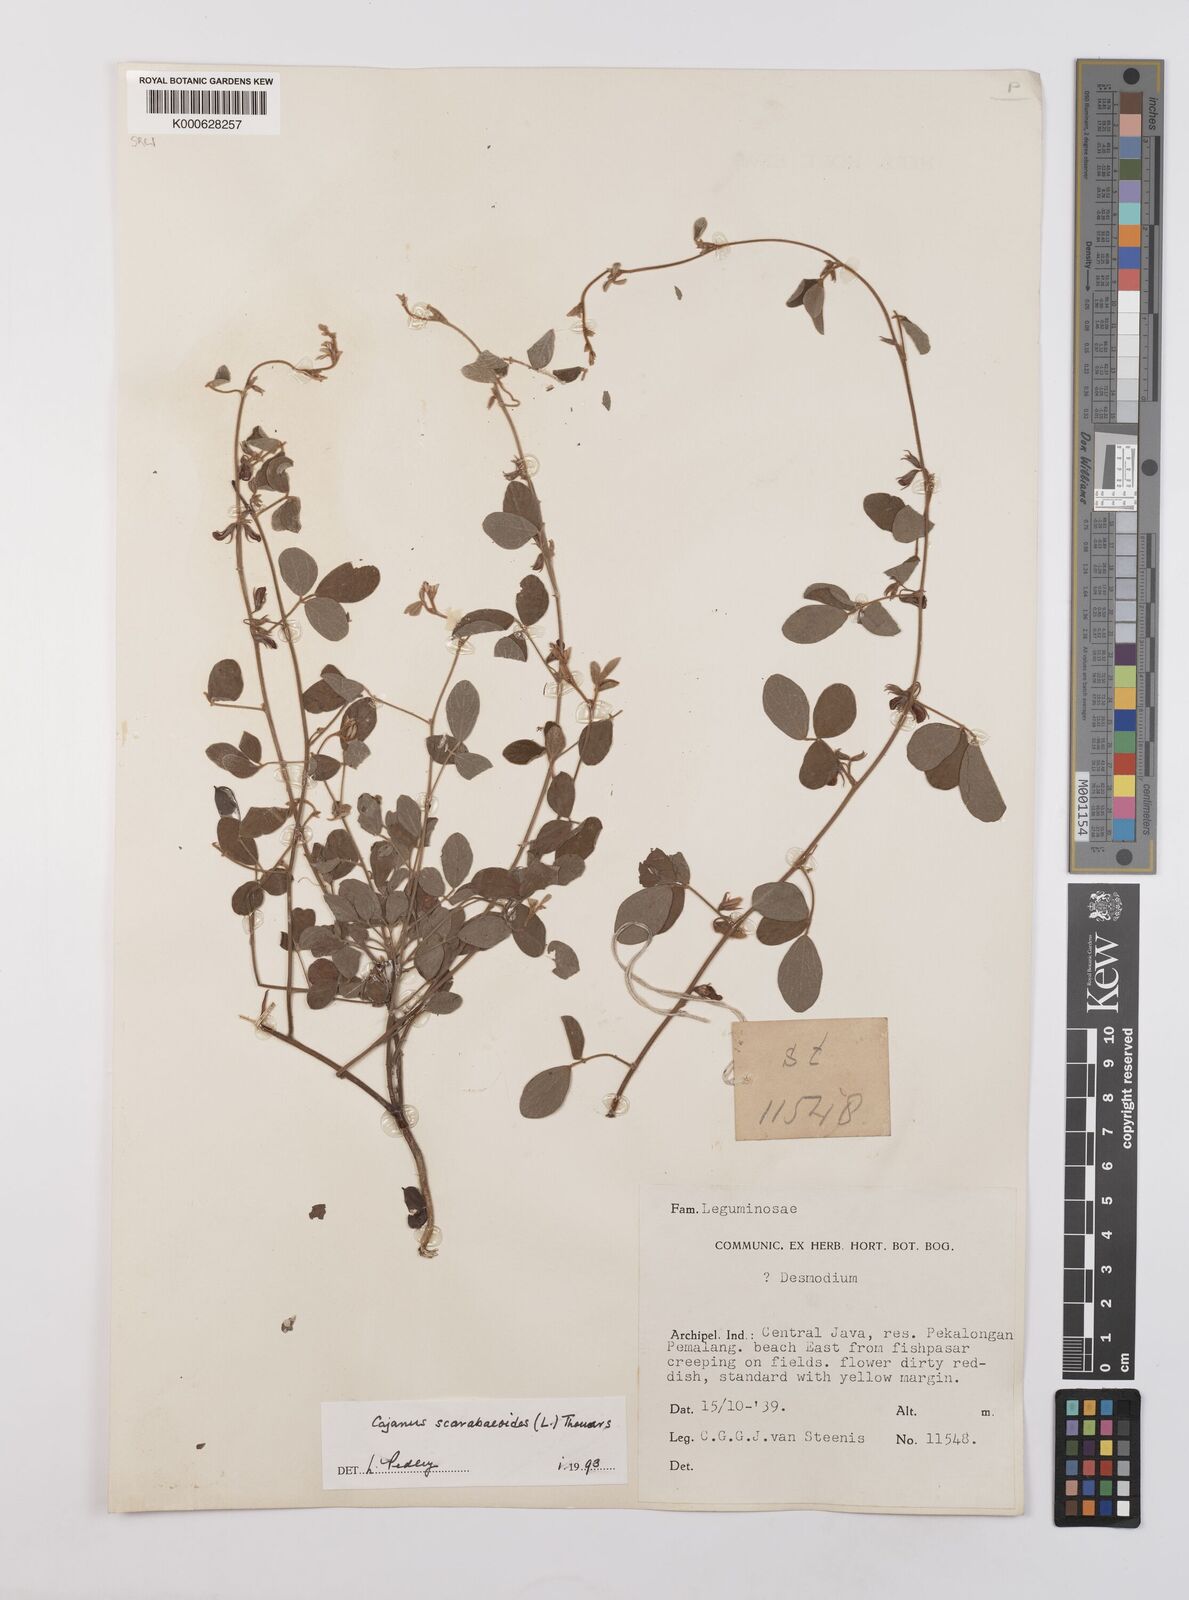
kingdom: Plantae
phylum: Tracheophyta
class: Magnoliopsida
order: Fabales
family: Fabaceae
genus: Cajanus
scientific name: Cajanus scarabaeoides
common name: Showy pigeonpea
